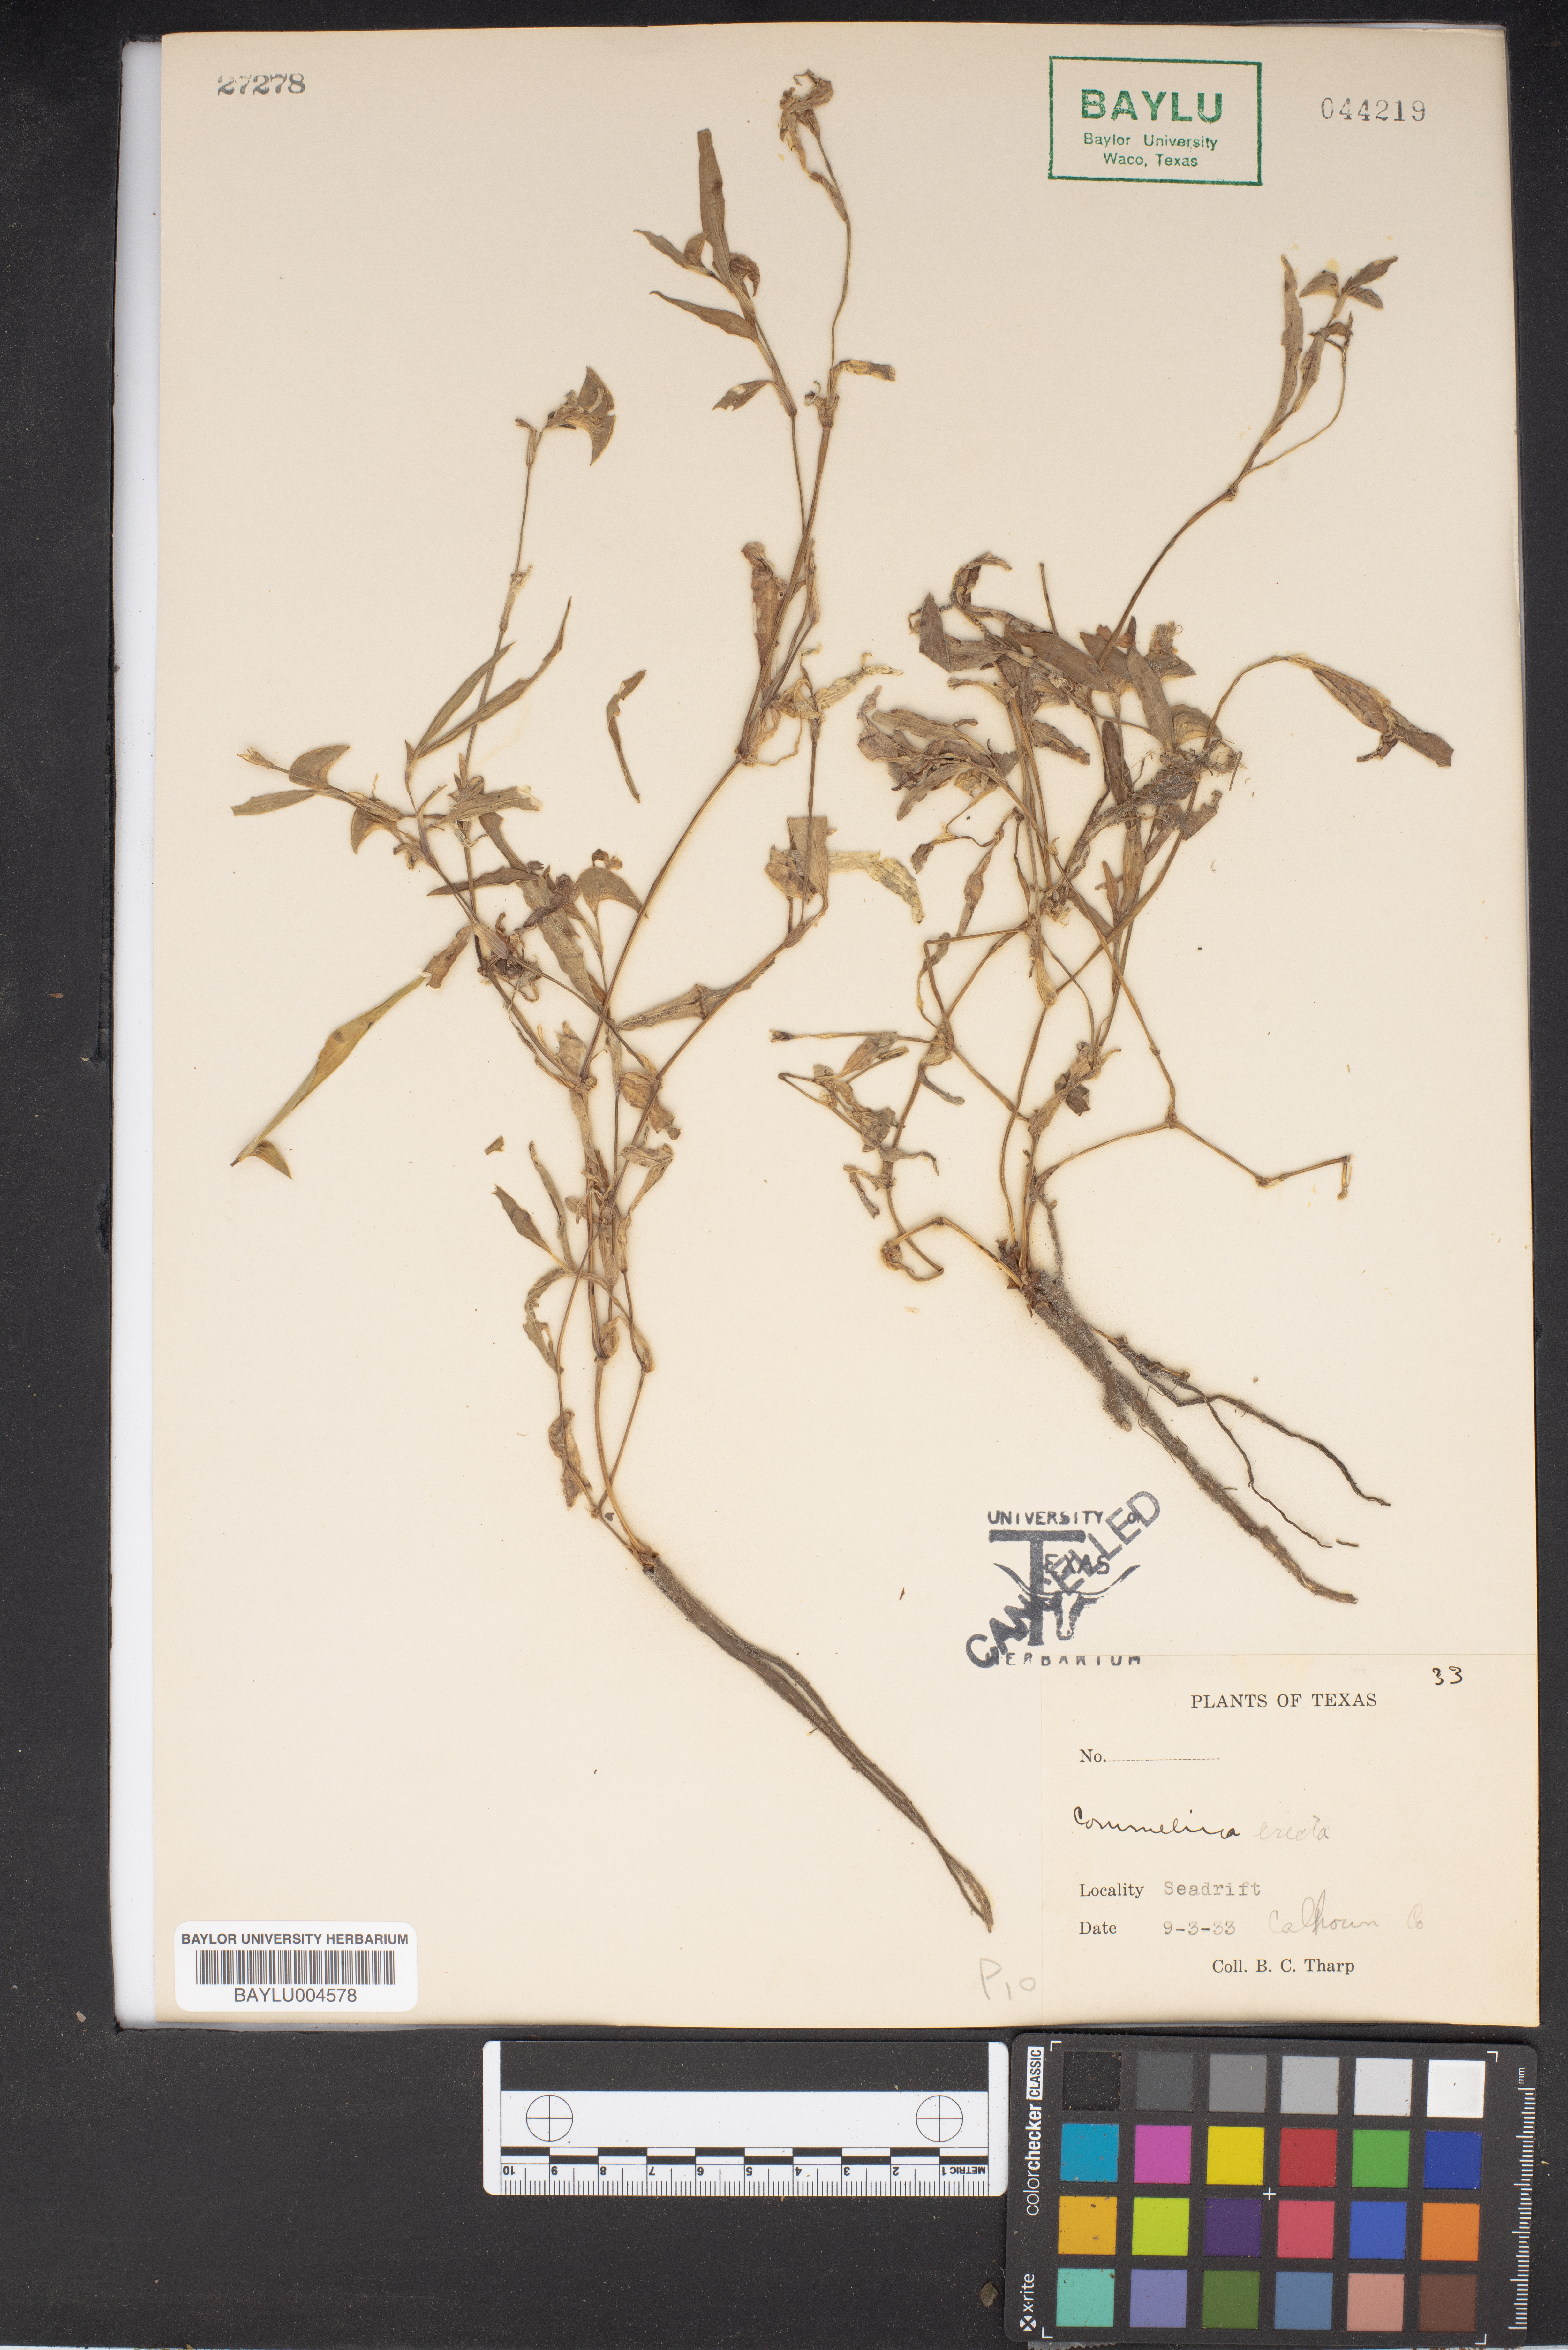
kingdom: Plantae
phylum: Tracheophyta
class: Liliopsida
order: Commelinales
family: Commelinaceae
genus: Commelina
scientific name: Commelina erecta
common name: Blousel blommetjie
